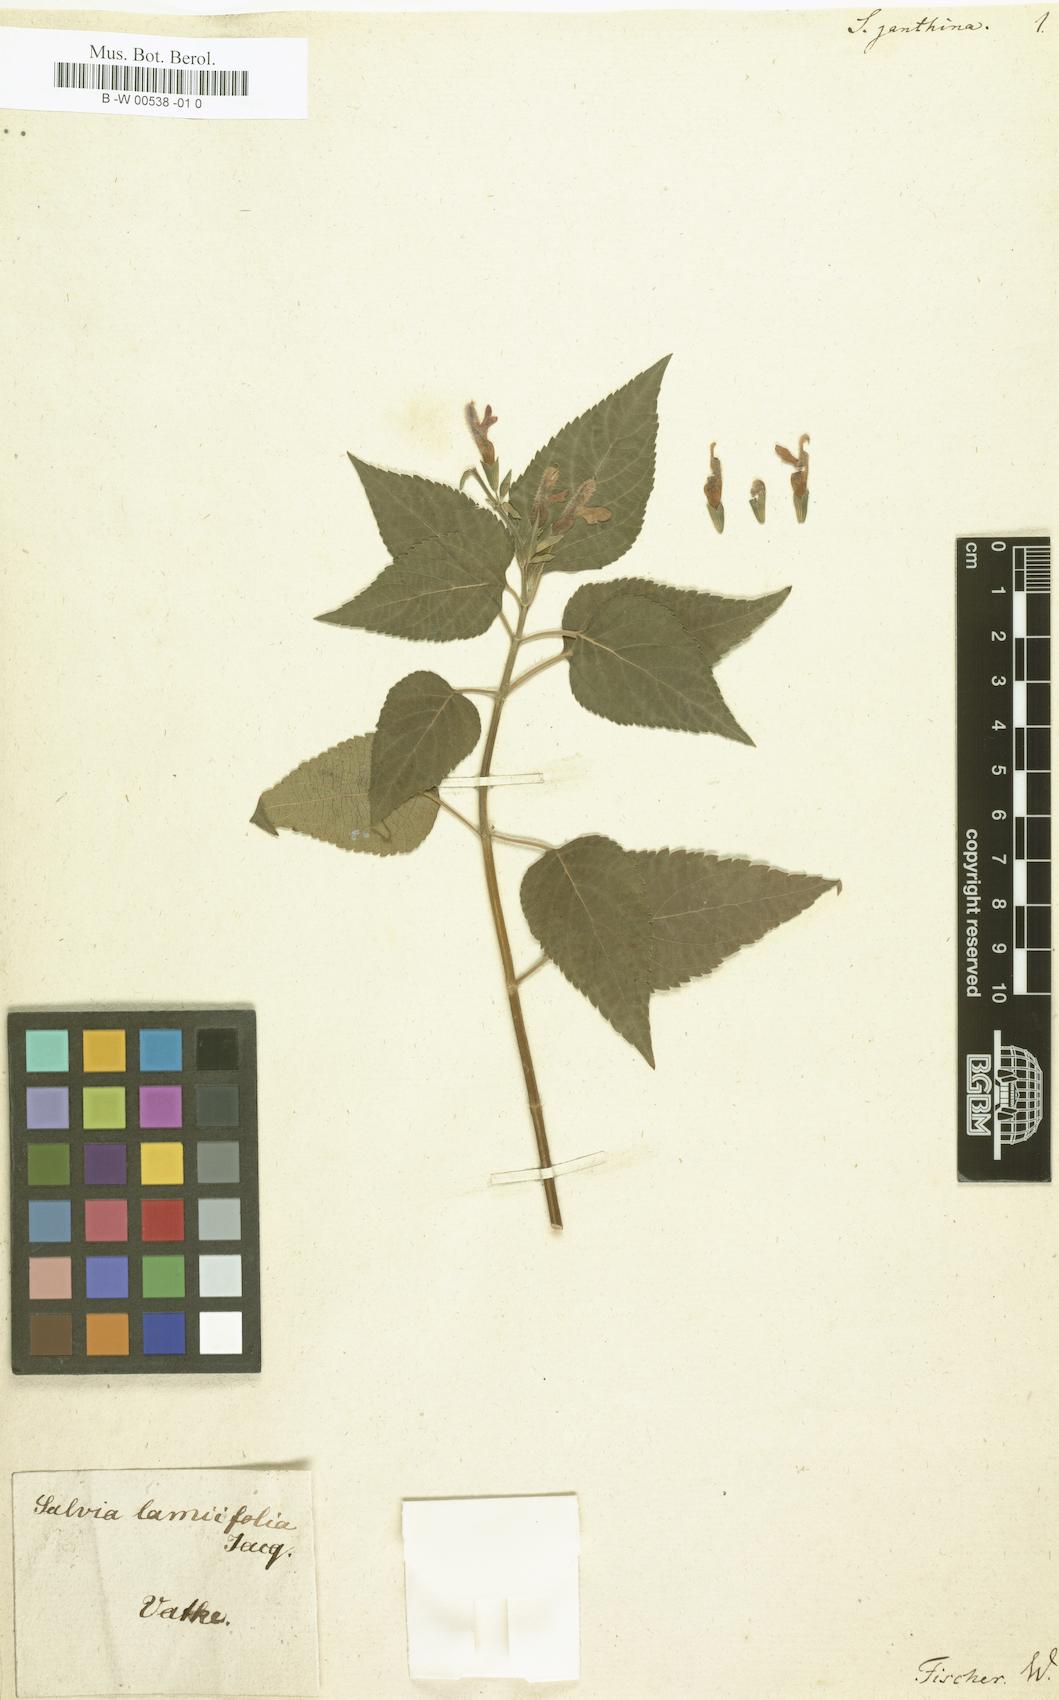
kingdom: Plantae
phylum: Tracheophyta
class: Magnoliopsida
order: Lamiales
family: Lamiaceae
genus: Salvia
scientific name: Salvia
